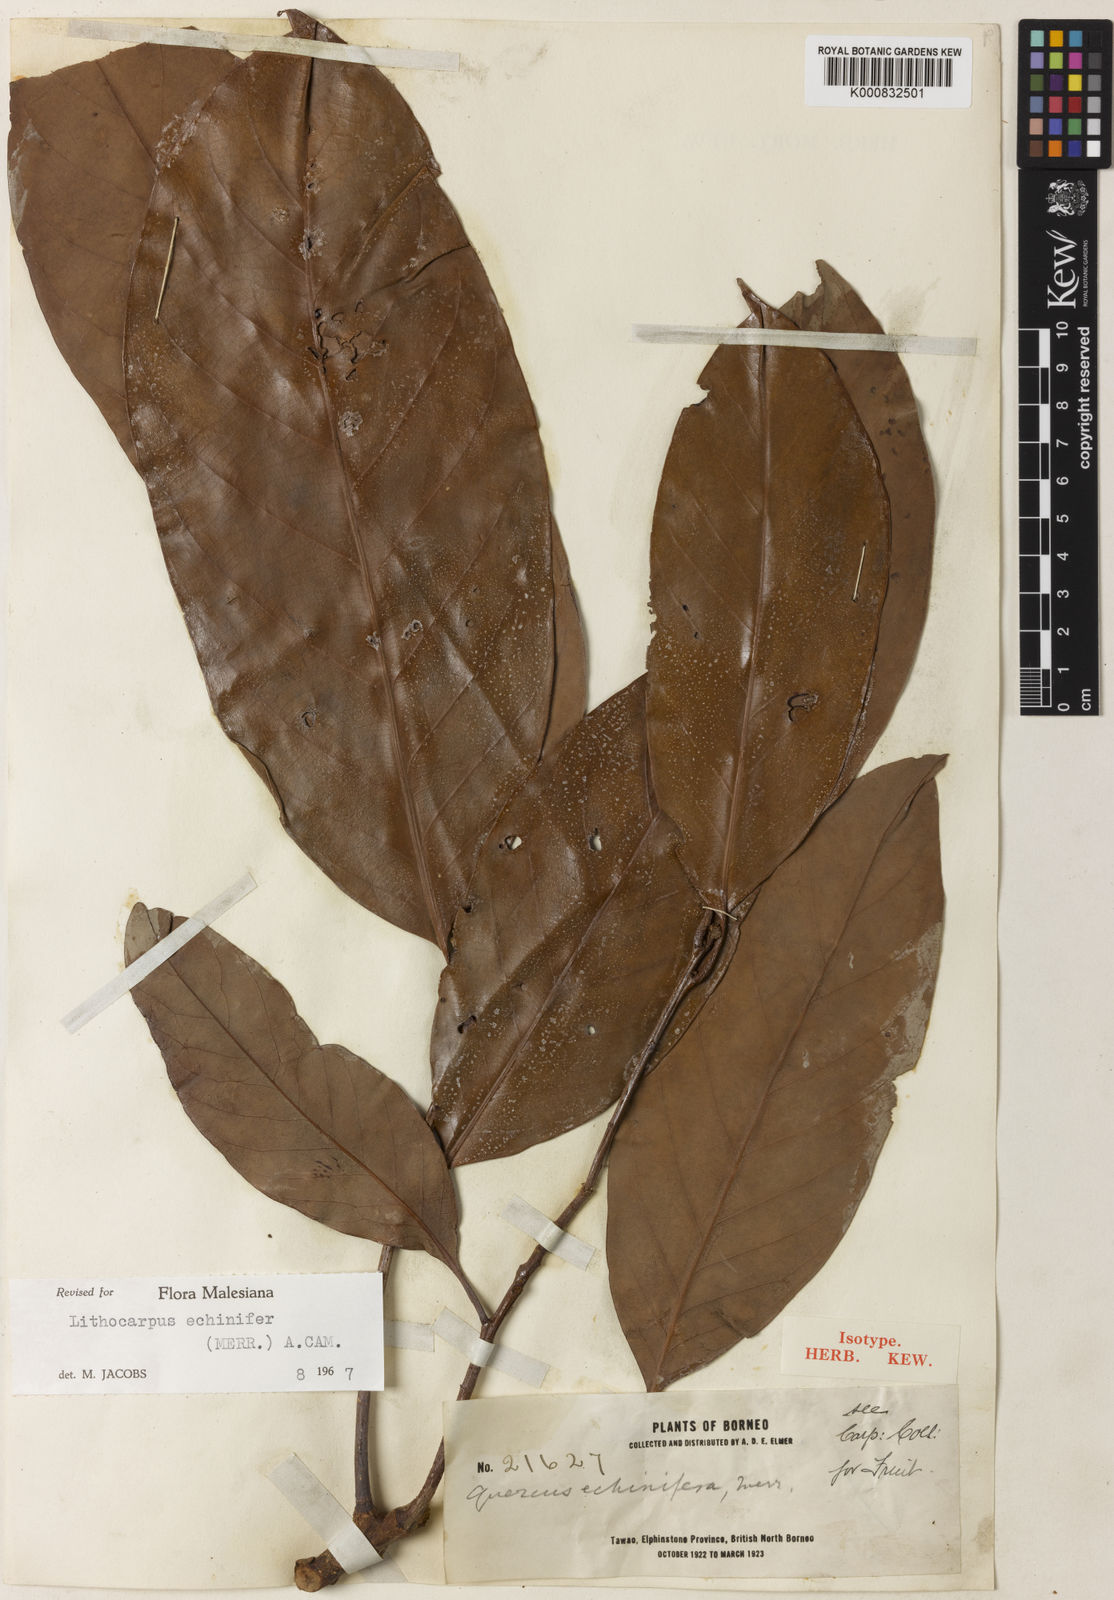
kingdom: Plantae
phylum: Tracheophyta
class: Magnoliopsida
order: Fagales
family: Fagaceae
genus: Lithocarpus
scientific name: Lithocarpus echinifer
